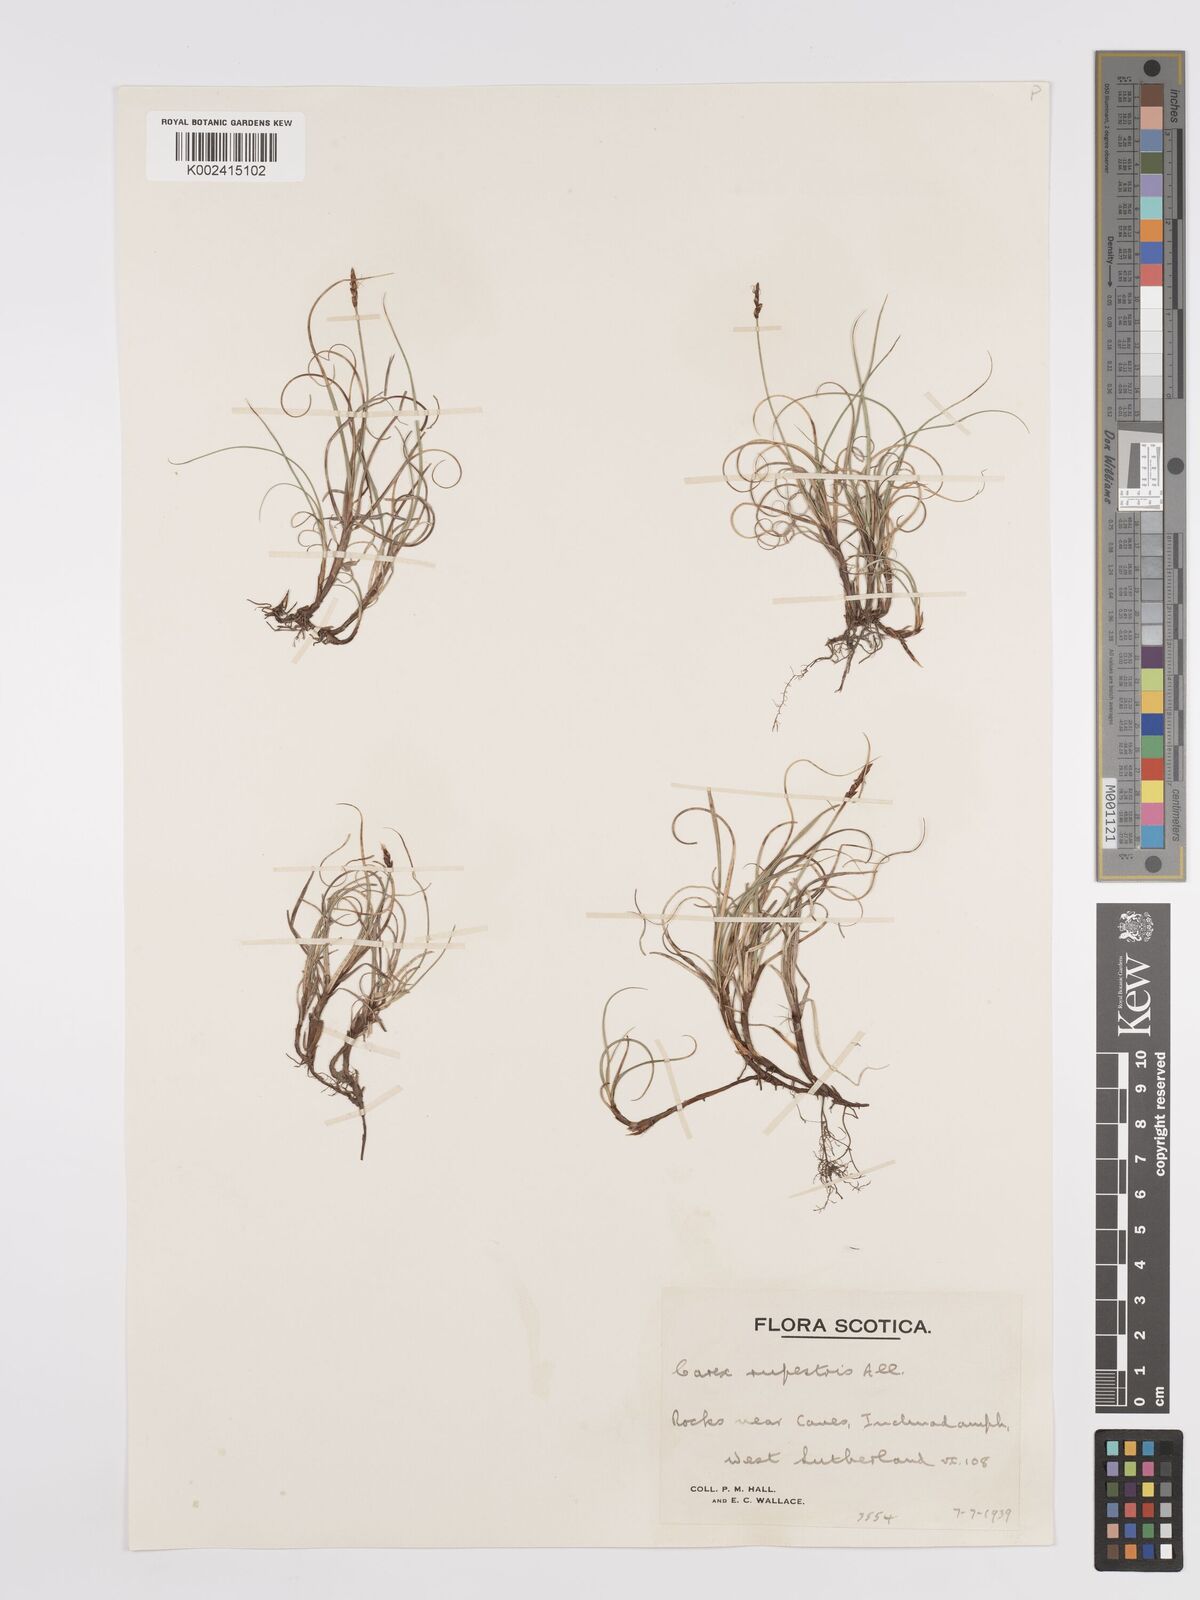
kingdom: Plantae
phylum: Tracheophyta
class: Liliopsida
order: Poales
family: Cyperaceae
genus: Carex
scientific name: Carex rupestris
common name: Rock sedge
